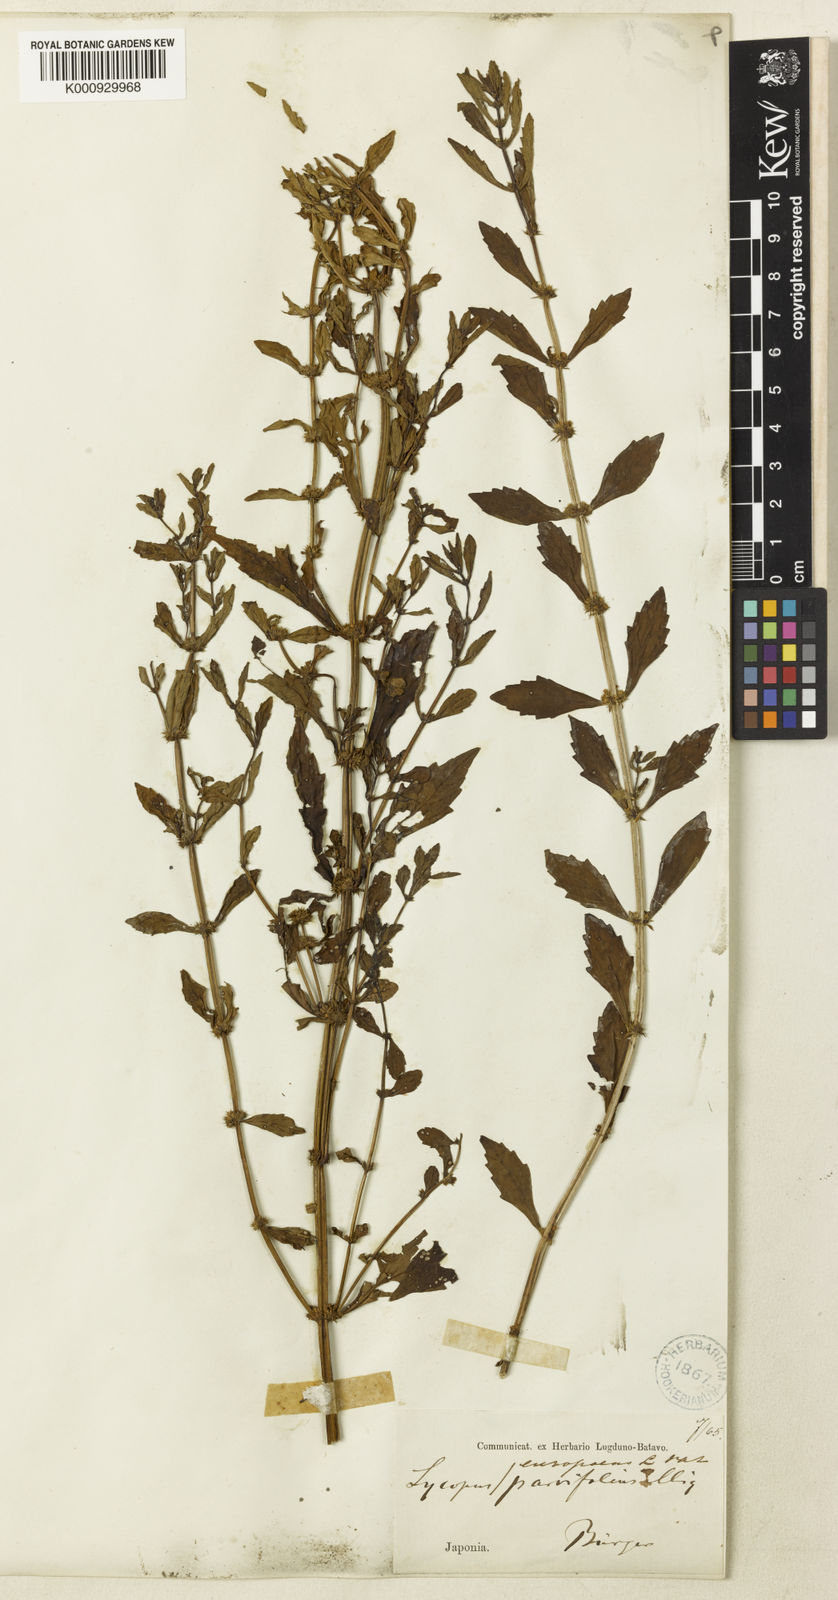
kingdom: Plantae
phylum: Tracheophyta
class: Magnoliopsida
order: Lamiales
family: Lamiaceae
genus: Lycopus
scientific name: Lycopus lucidus
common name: Shiny bugleweed
